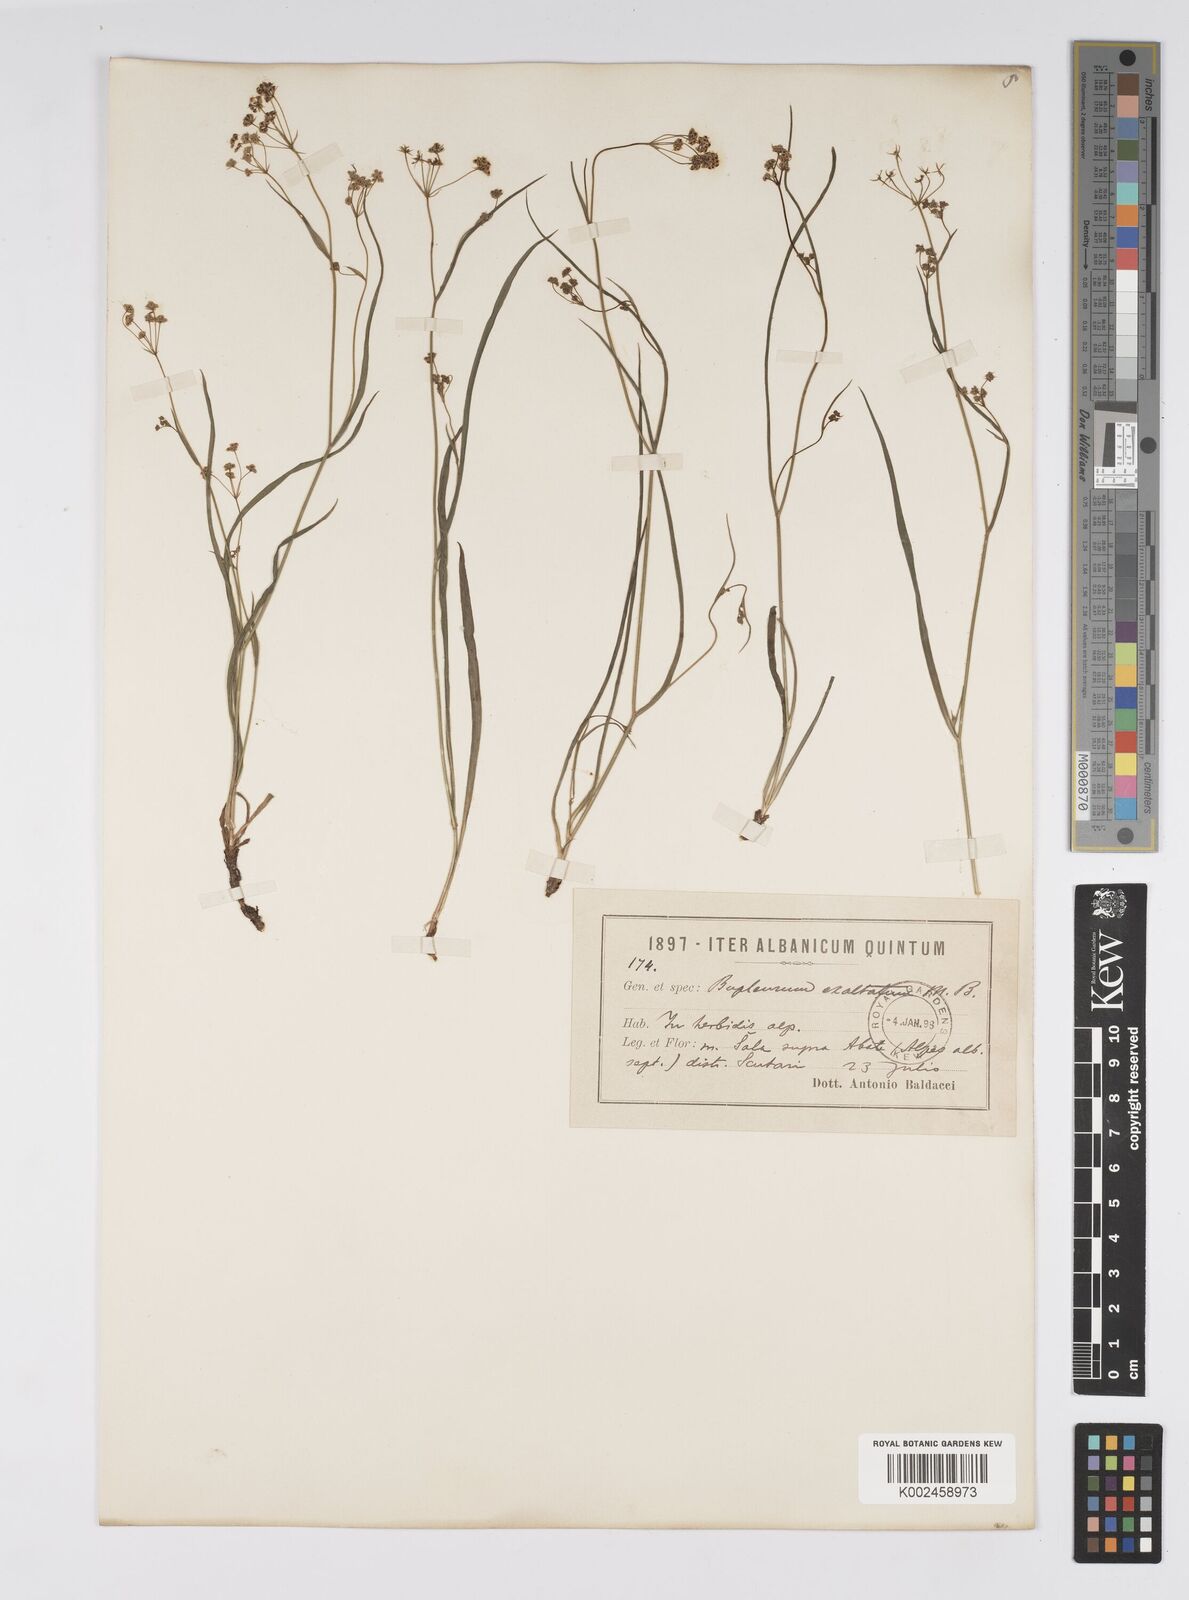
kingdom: Plantae
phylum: Tracheophyta
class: Magnoliopsida
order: Apiales
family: Apiaceae
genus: Bupleurum
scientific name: Bupleurum falcatum
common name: Sickle-leaved hare's-ear
